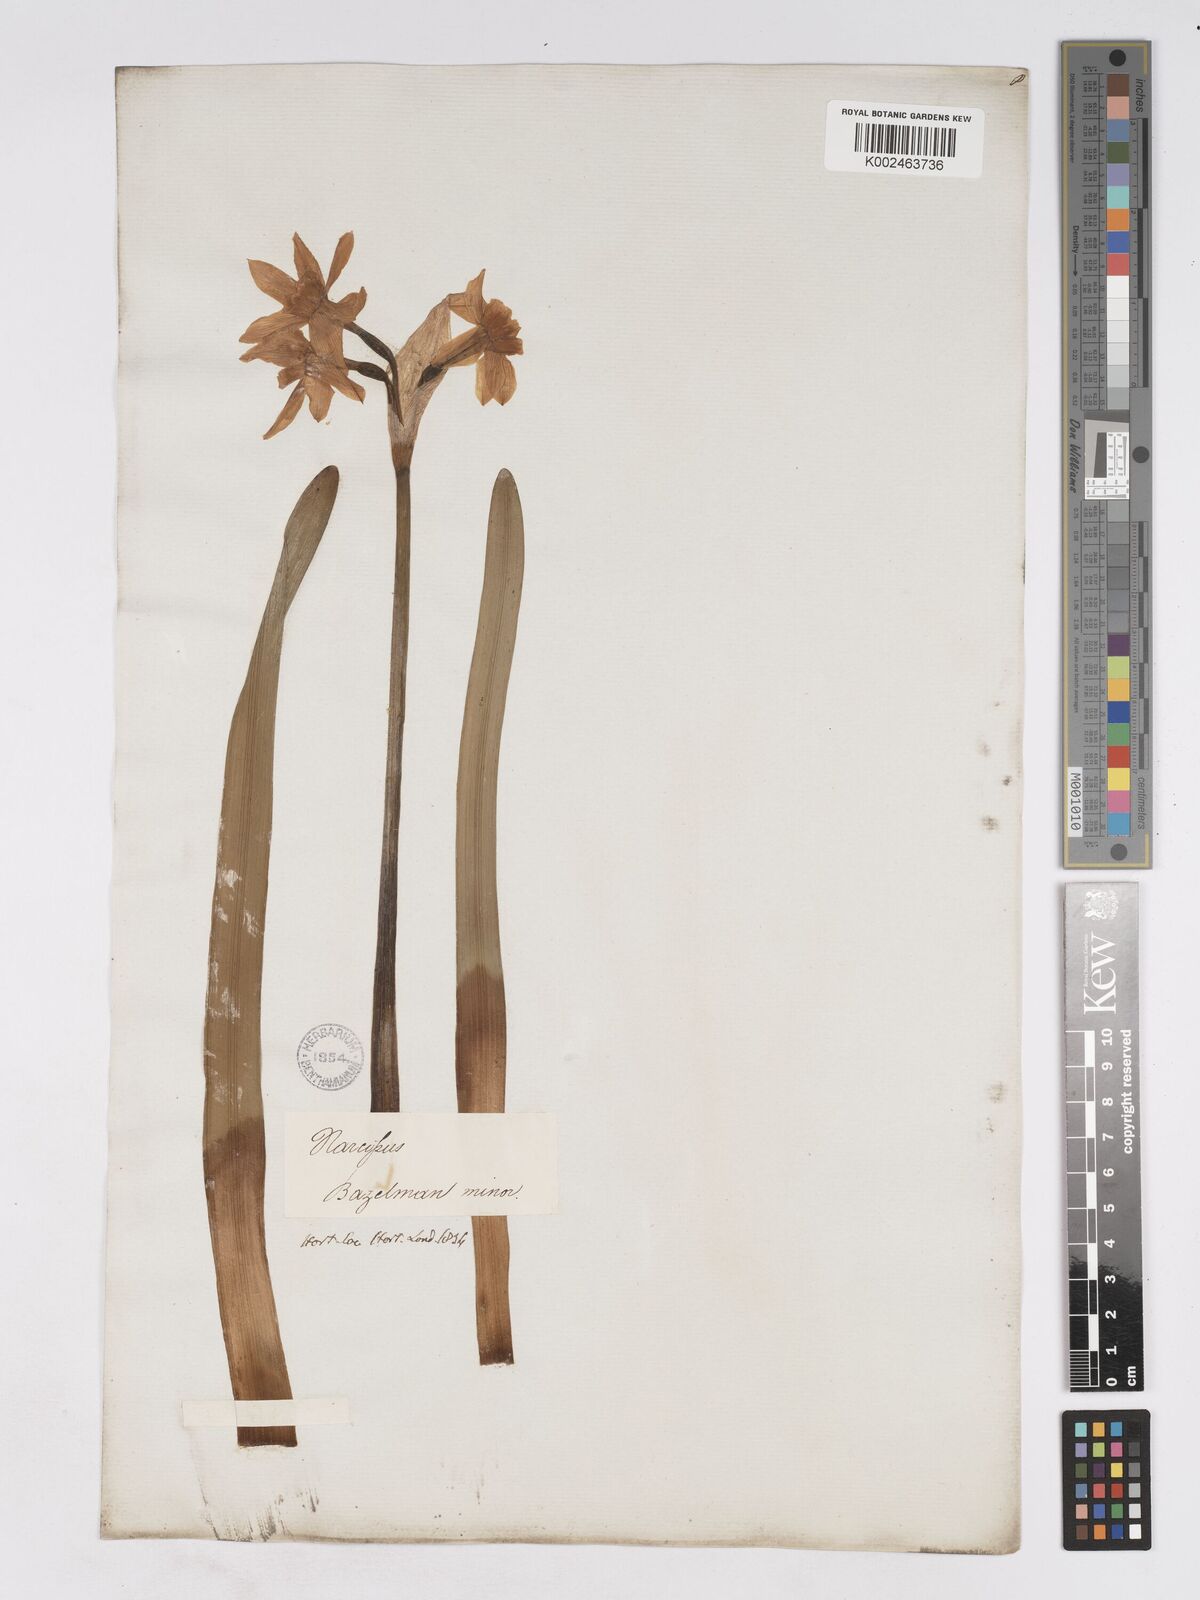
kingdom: Plantae
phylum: Tracheophyta
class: Liliopsida
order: Asparagales
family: Amaryllidaceae
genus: Narcissus
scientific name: Narcissus tazetta
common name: Bunch-flowered daffodil
